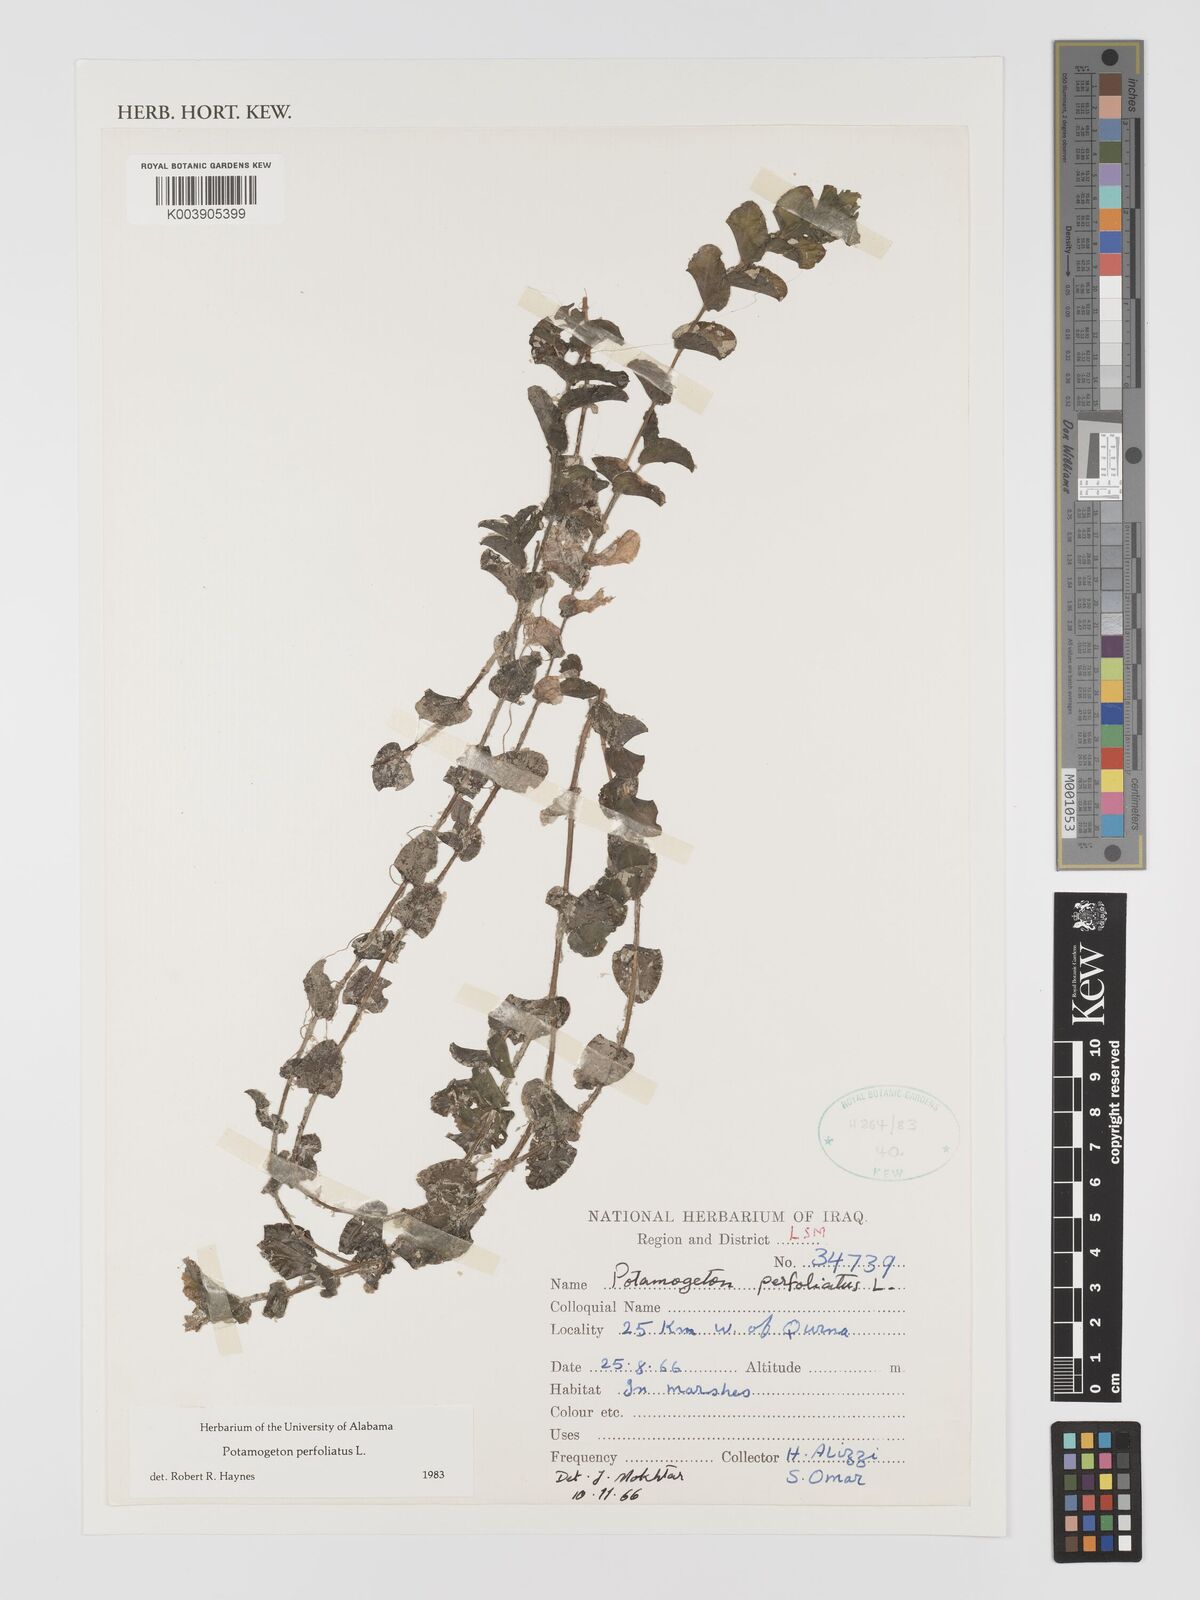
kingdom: Plantae
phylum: Tracheophyta
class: Liliopsida
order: Alismatales
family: Potamogetonaceae
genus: Potamogeton
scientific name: Potamogeton perfoliatus
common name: Perfoliate pondweed
